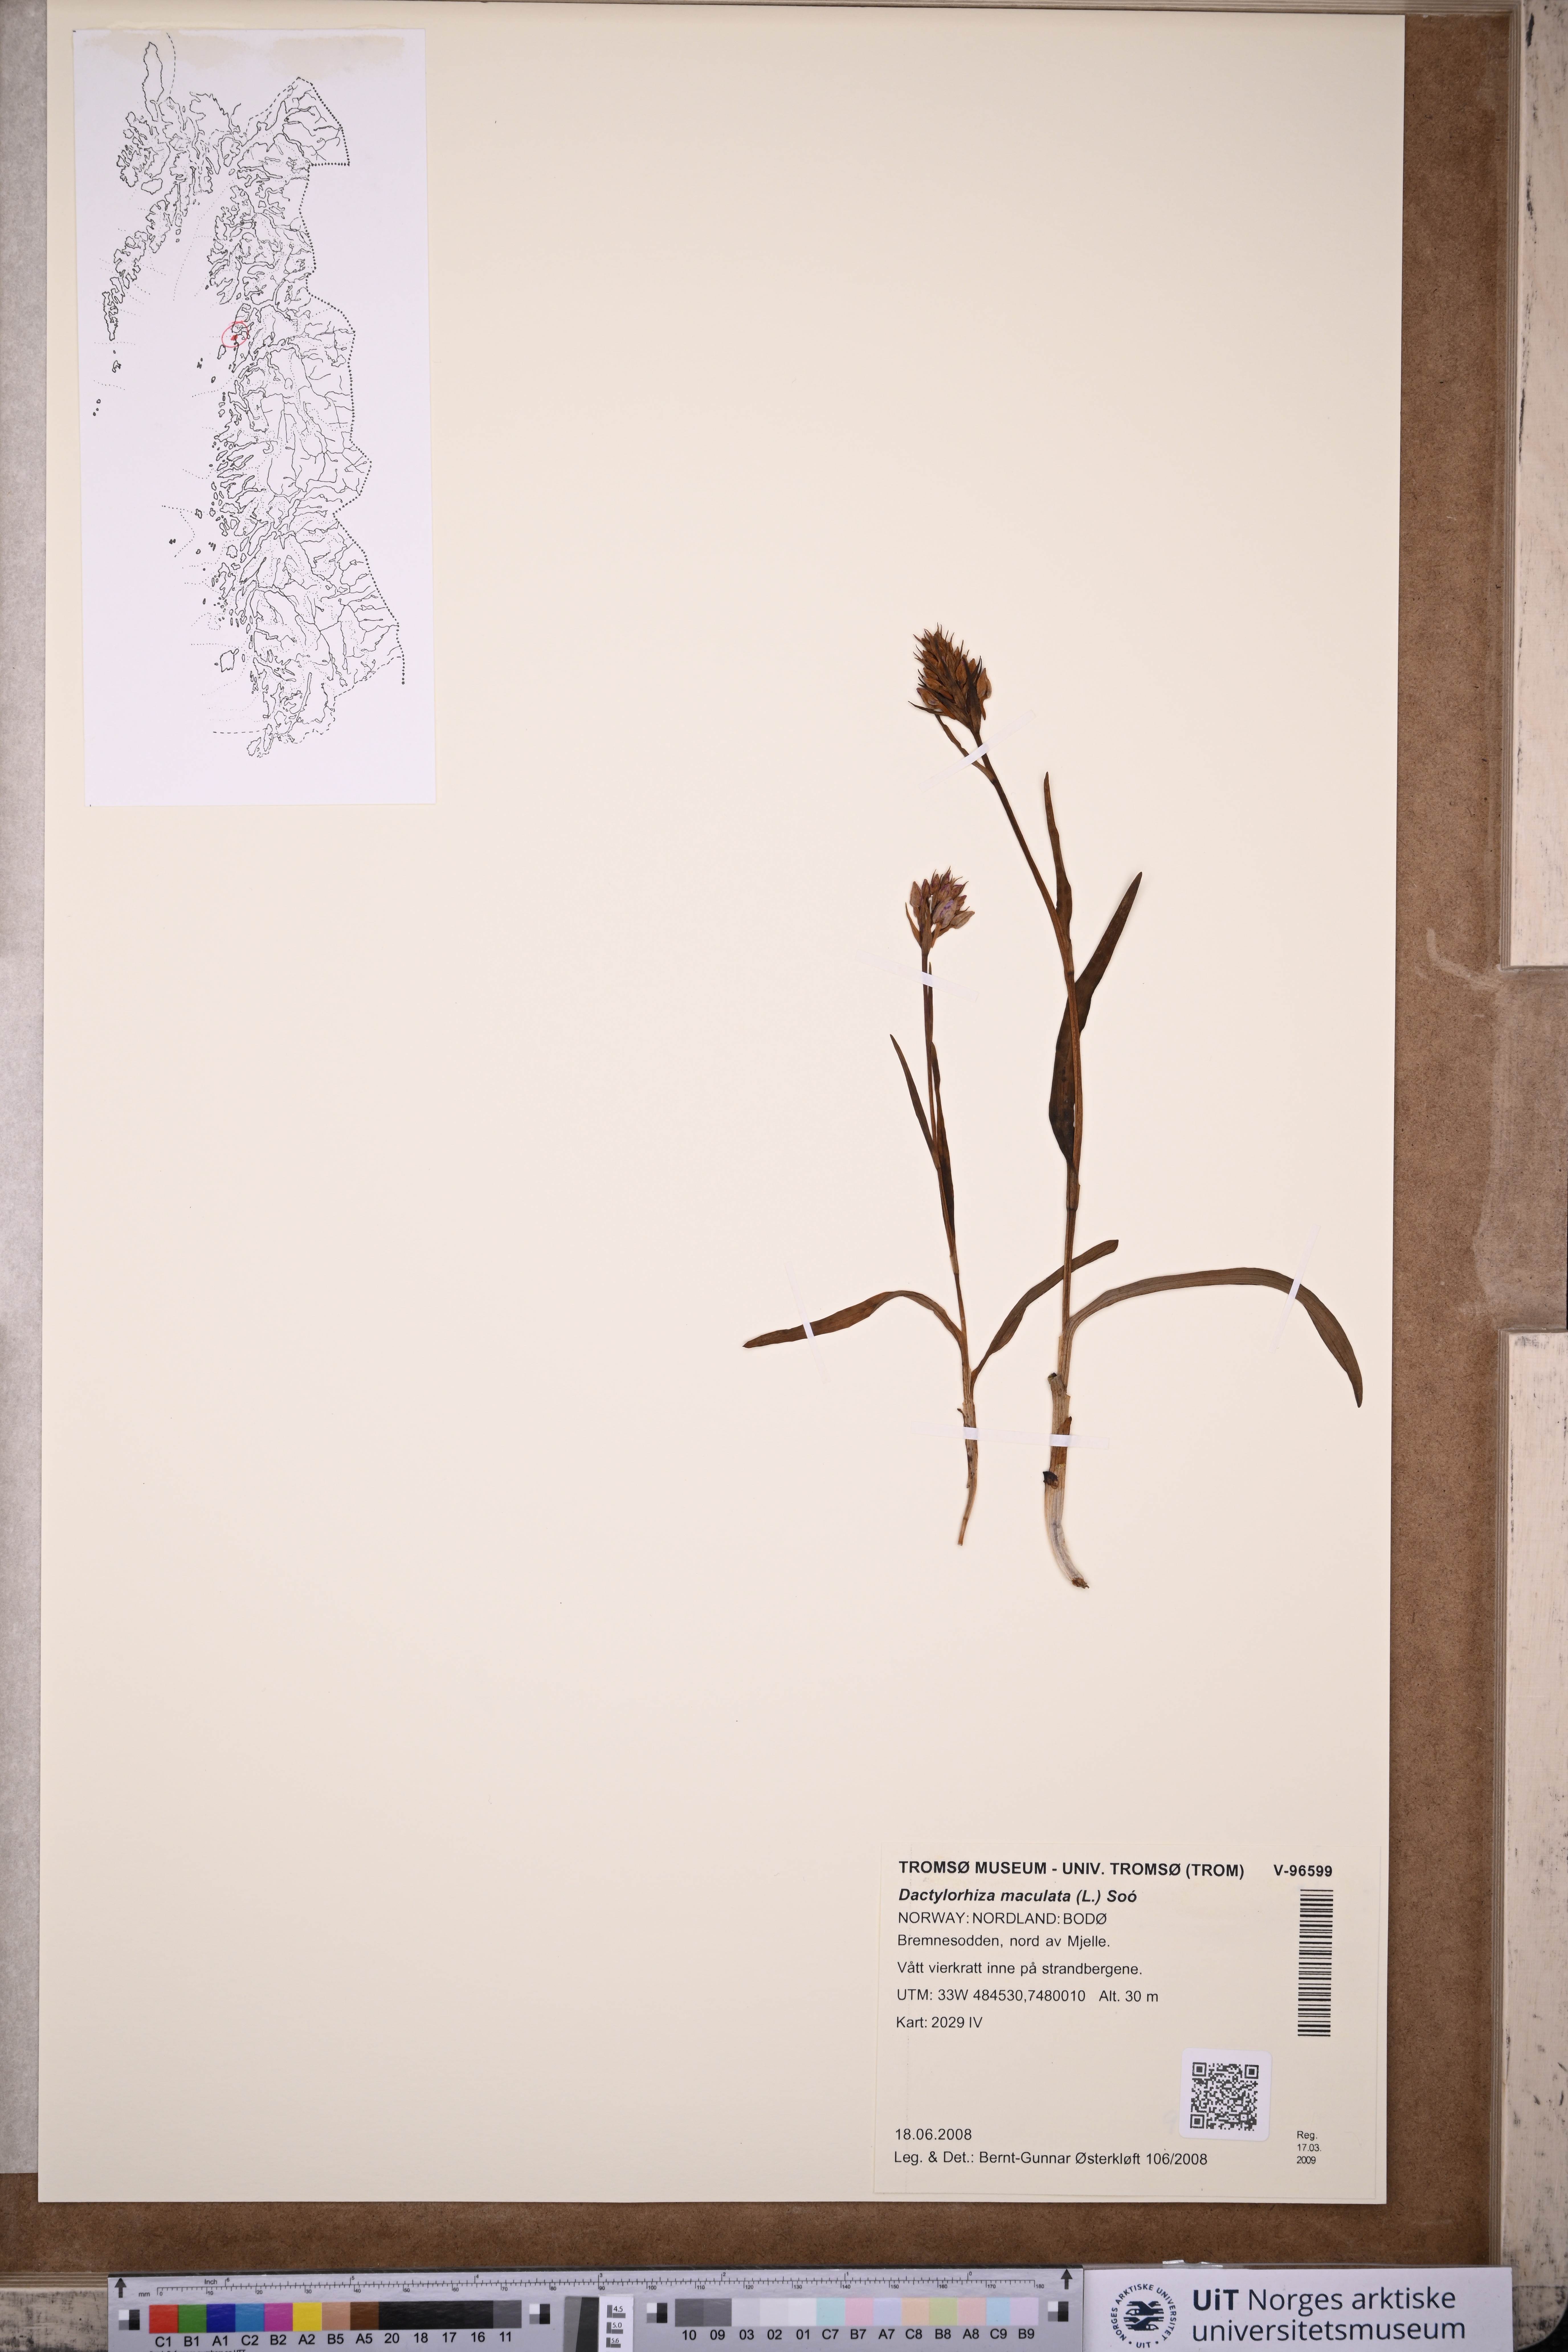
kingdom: Plantae
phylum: Tracheophyta
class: Liliopsida
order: Asparagales
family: Orchidaceae
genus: Dactylorhiza
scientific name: Dactylorhiza maculata
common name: Heath spotted-orchid
